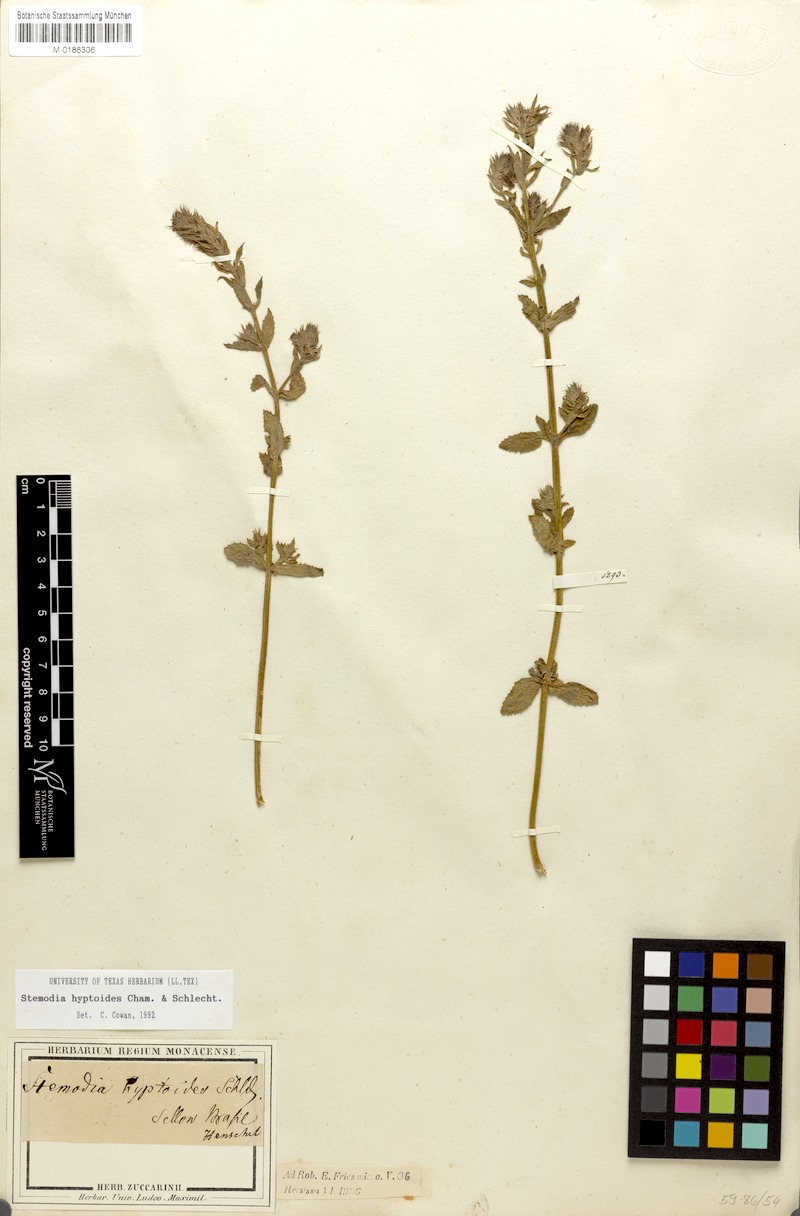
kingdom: Plantae
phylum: Tracheophyta
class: Magnoliopsida
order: Lamiales
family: Plantaginaceae
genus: Stemodia
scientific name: Stemodia hyptoides
